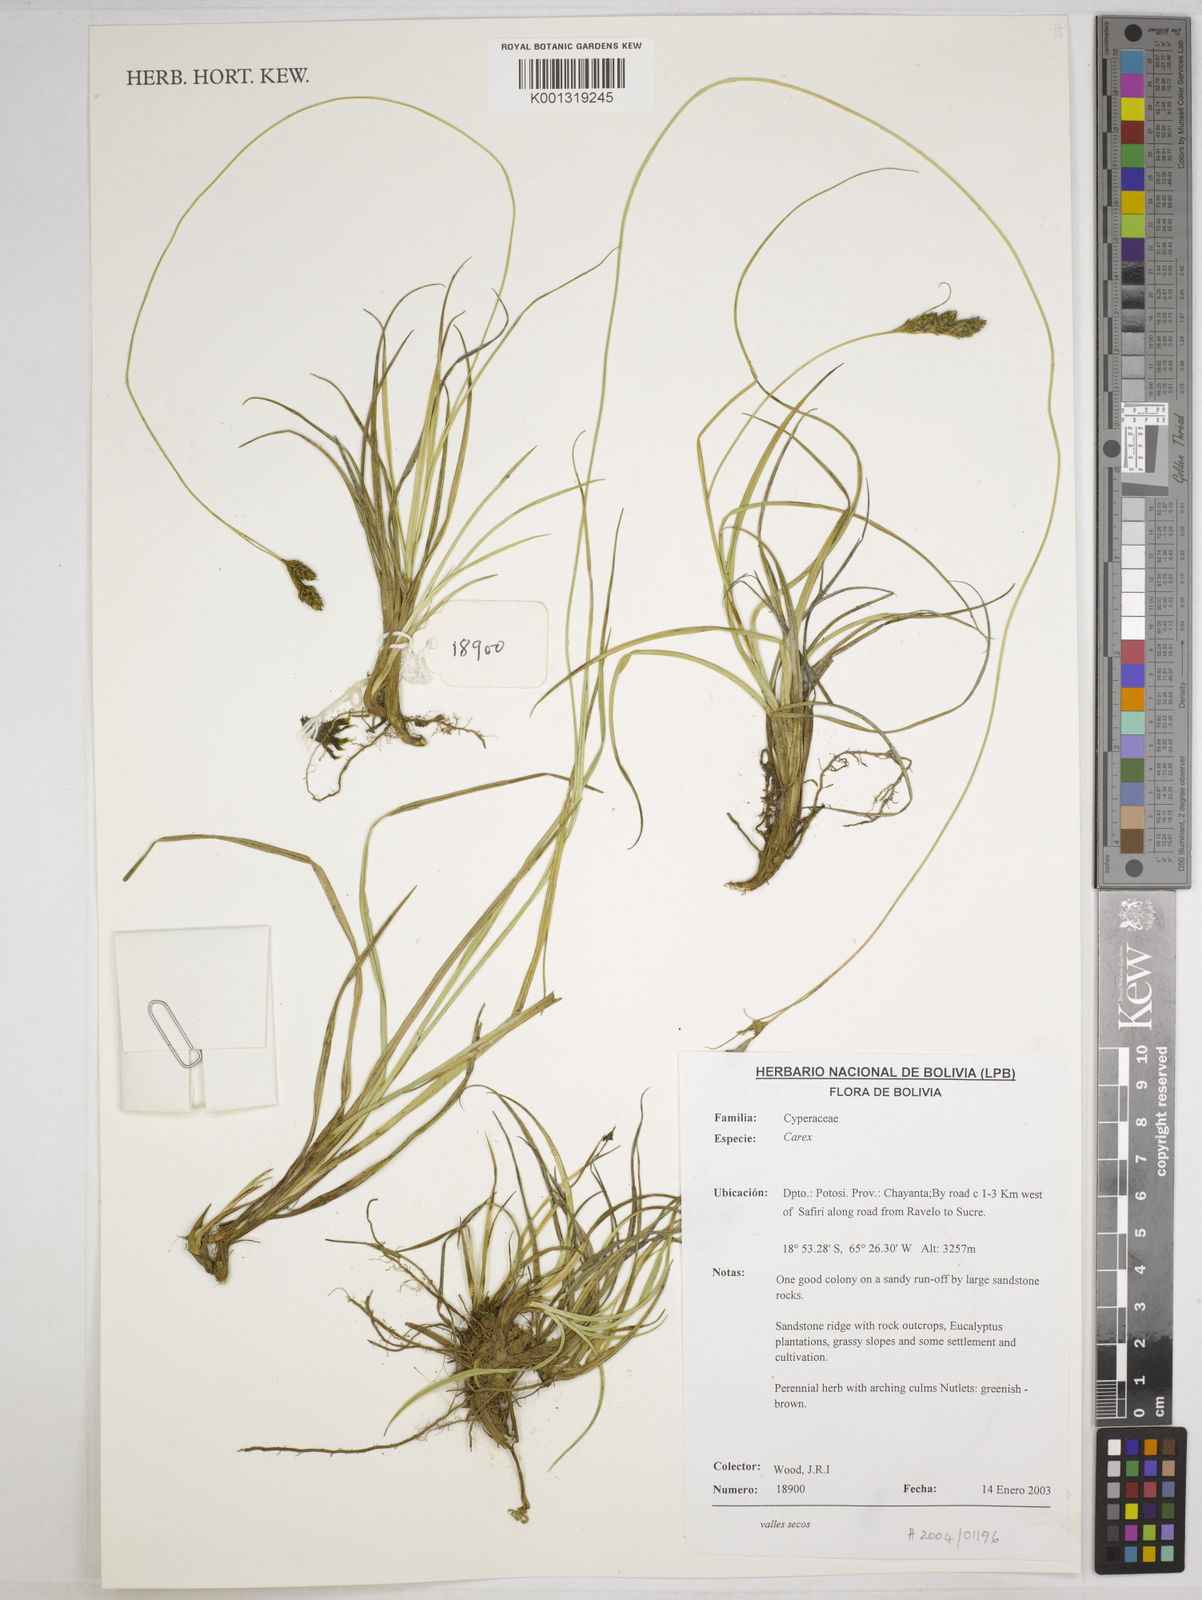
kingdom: Plantae
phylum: Tracheophyta
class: Liliopsida
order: Poales
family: Cyperaceae
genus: Carex
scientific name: Carex boliviensis
